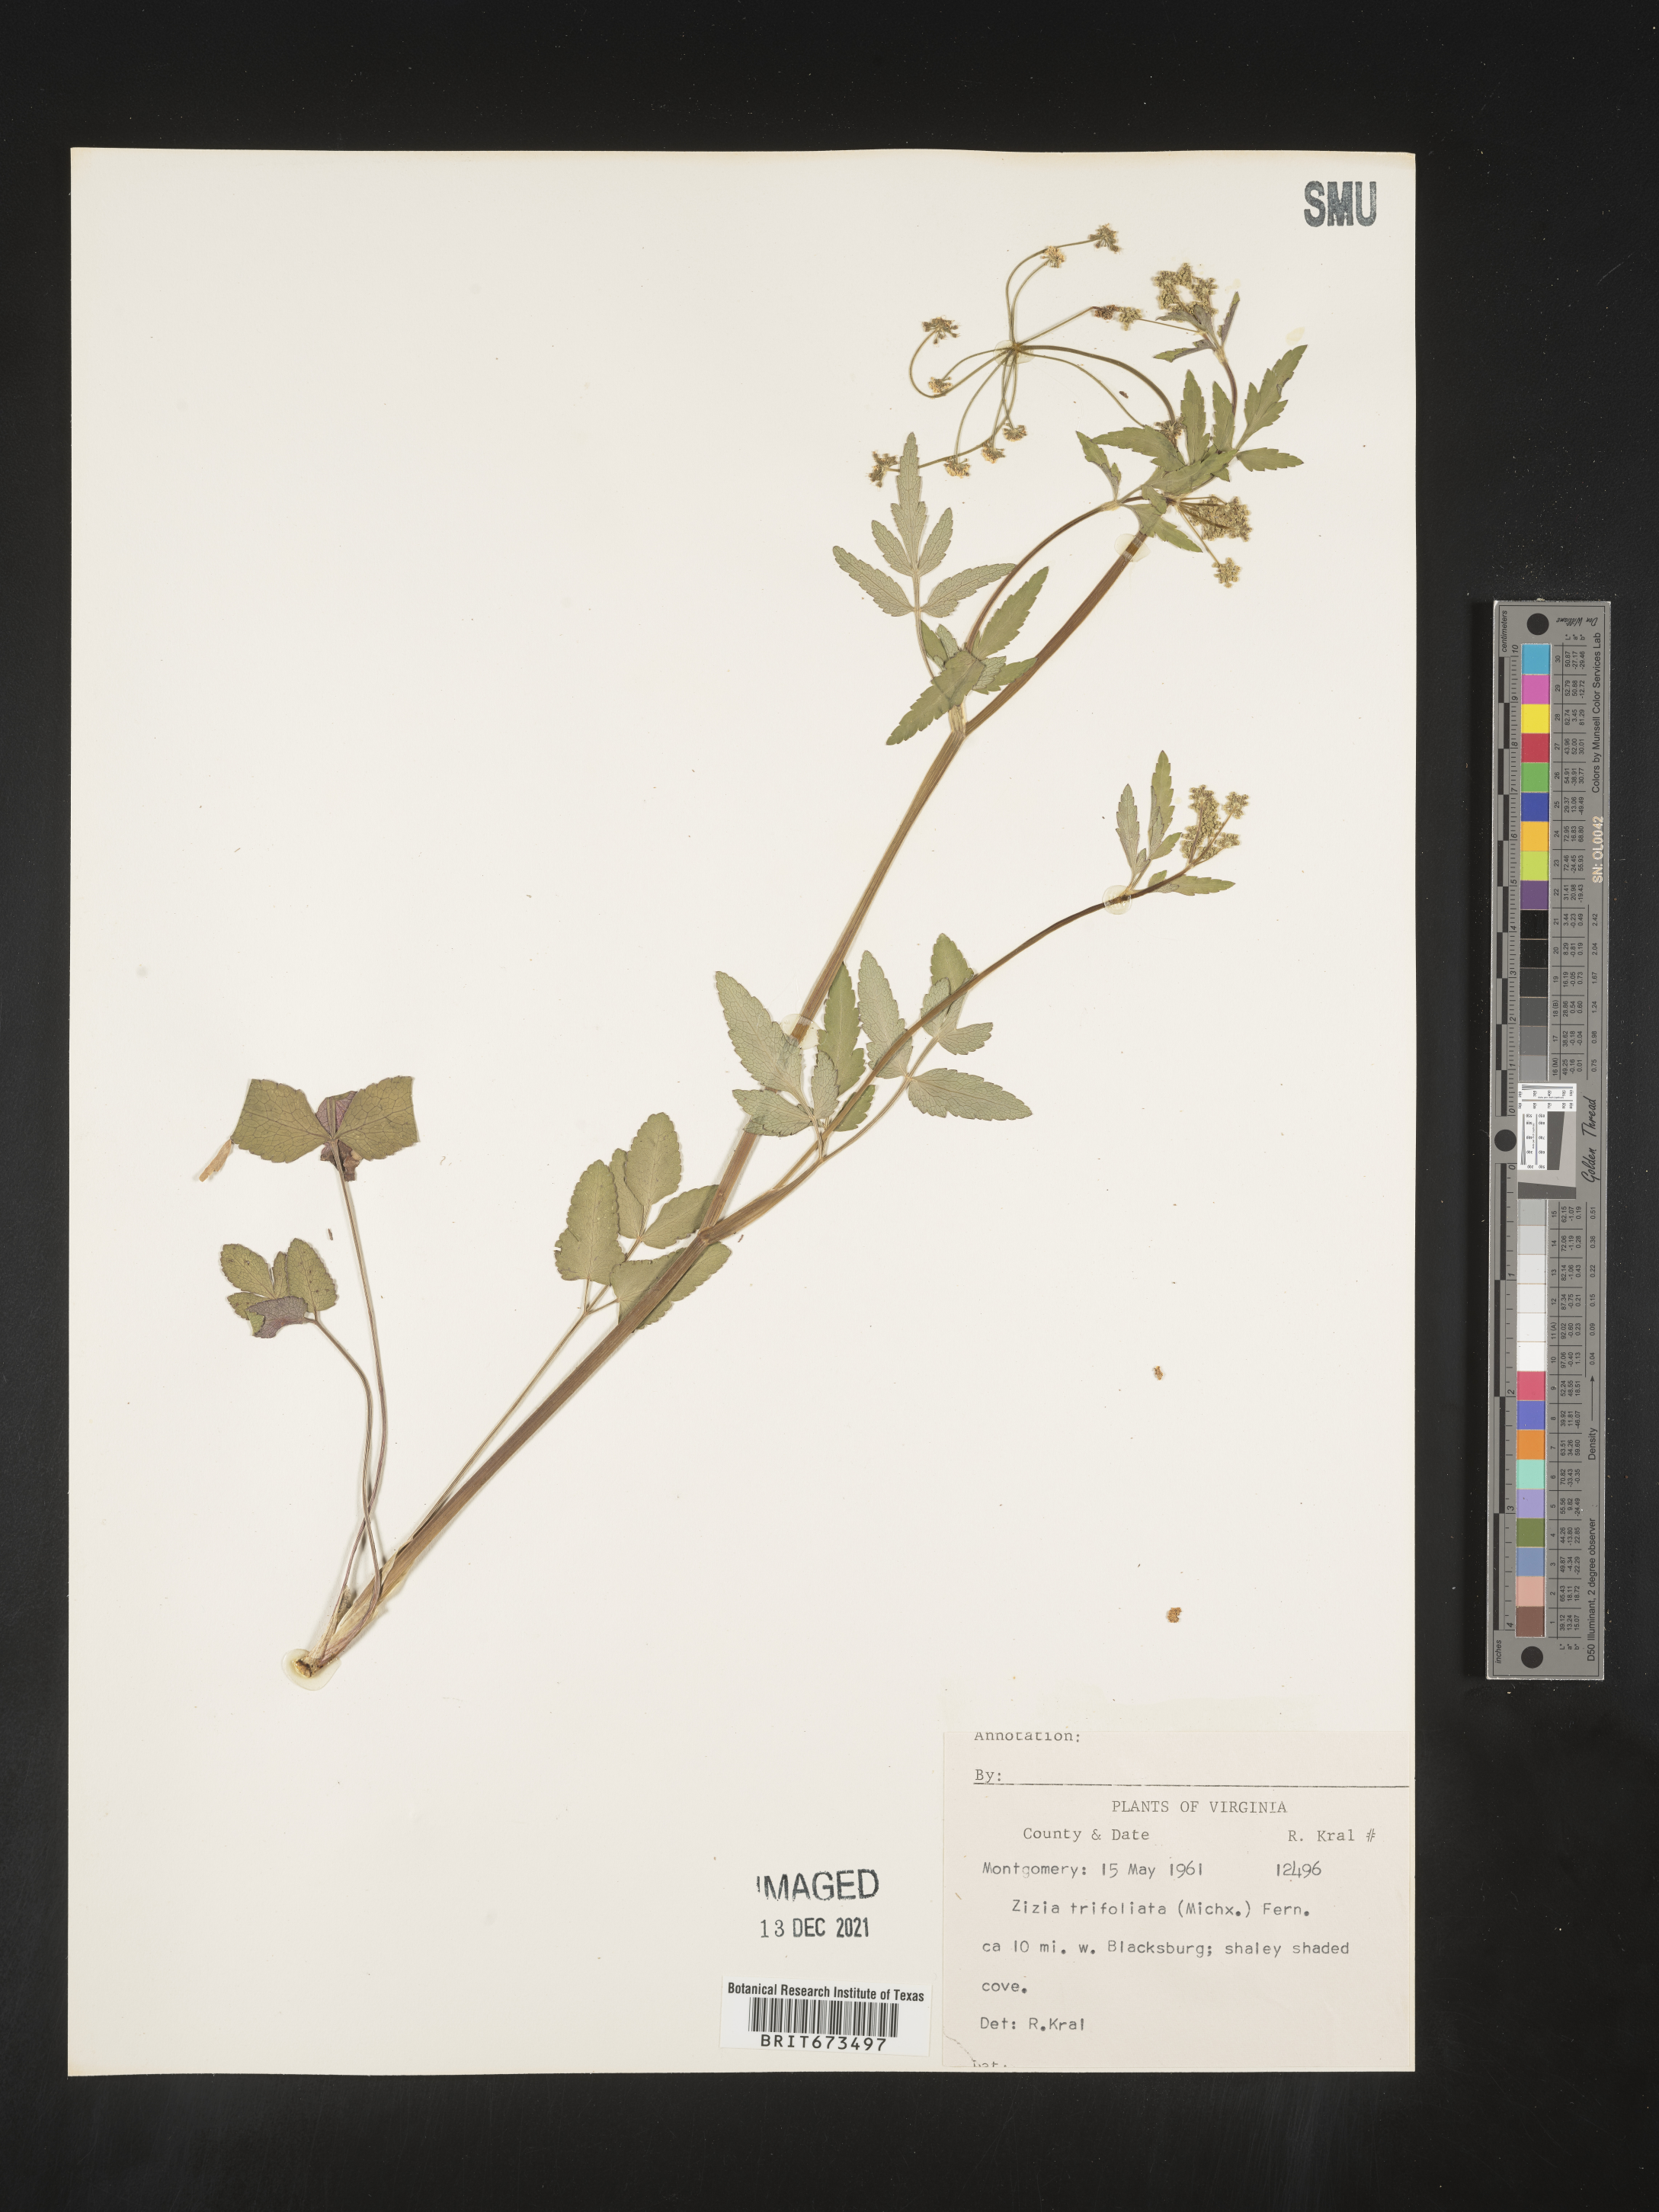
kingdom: Plantae
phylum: Tracheophyta
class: Magnoliopsida
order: Apiales
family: Apiaceae
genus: Zizia
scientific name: Zizia trifoliata
